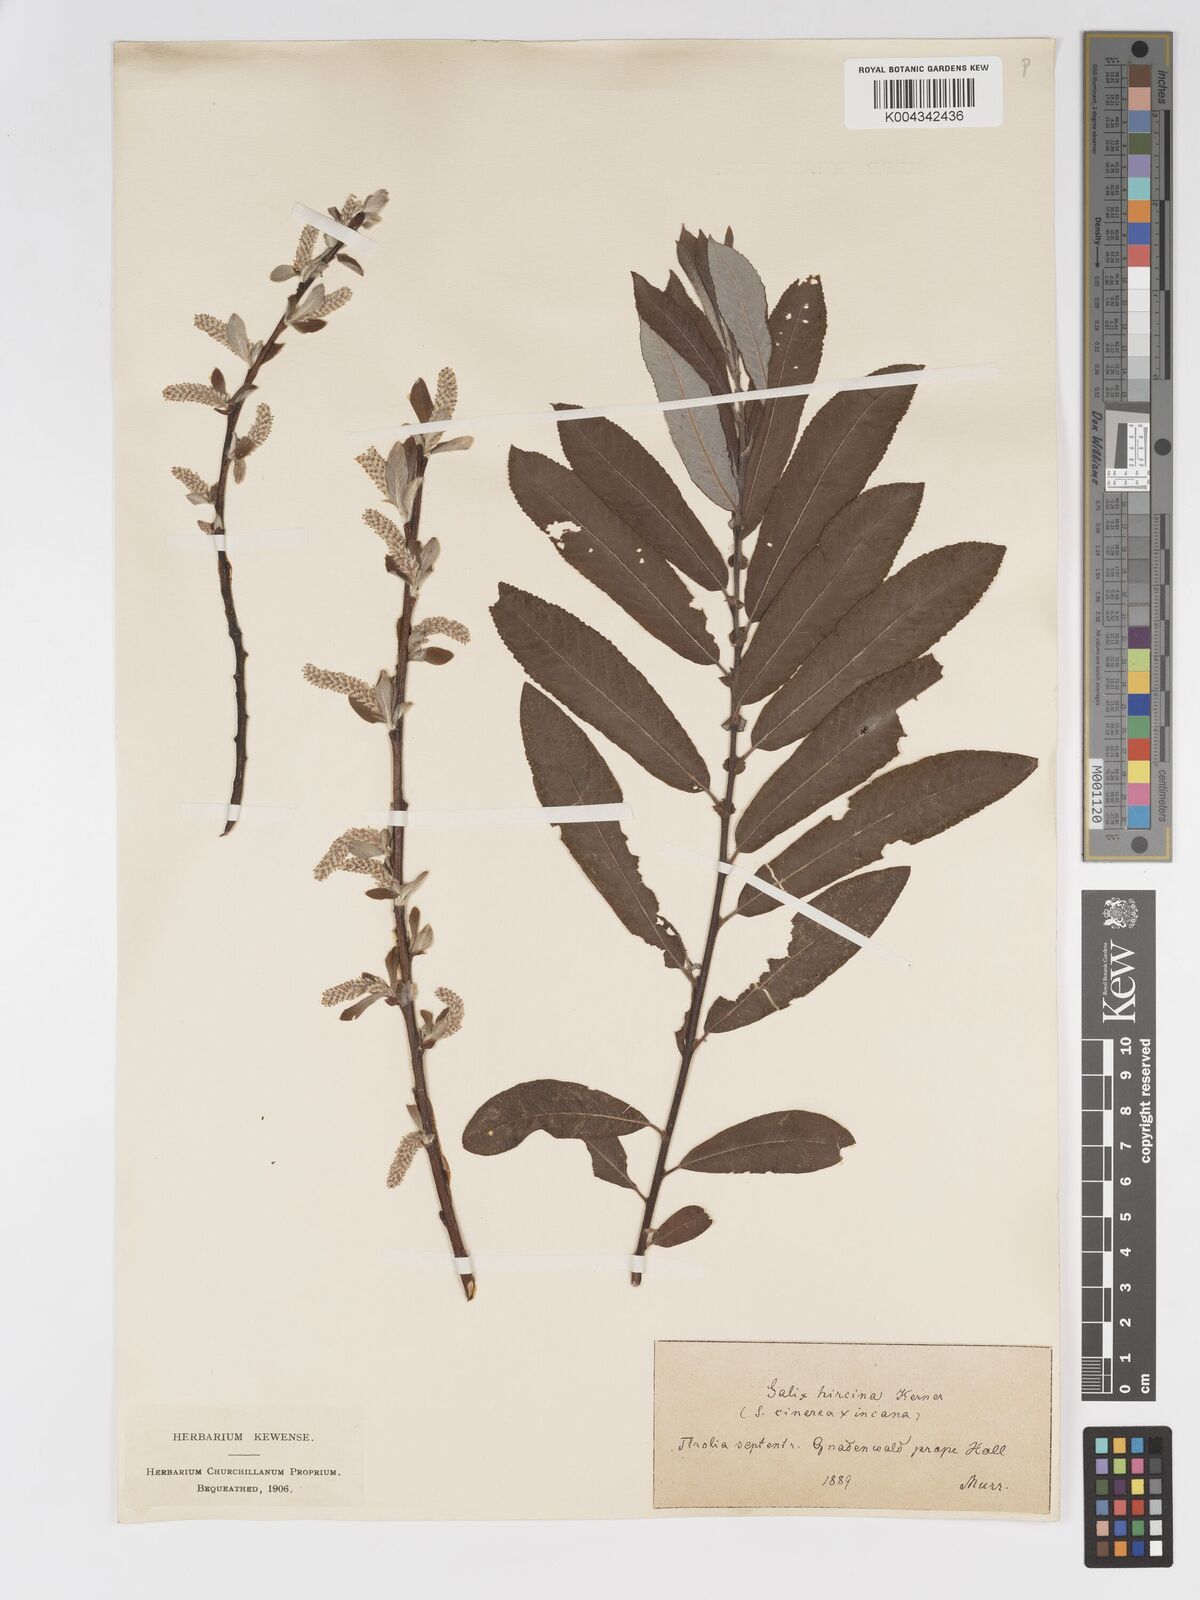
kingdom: Plantae
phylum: Tracheophyta
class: Magnoliopsida
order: Malpighiales
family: Salicaceae
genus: Salix
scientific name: Salix
